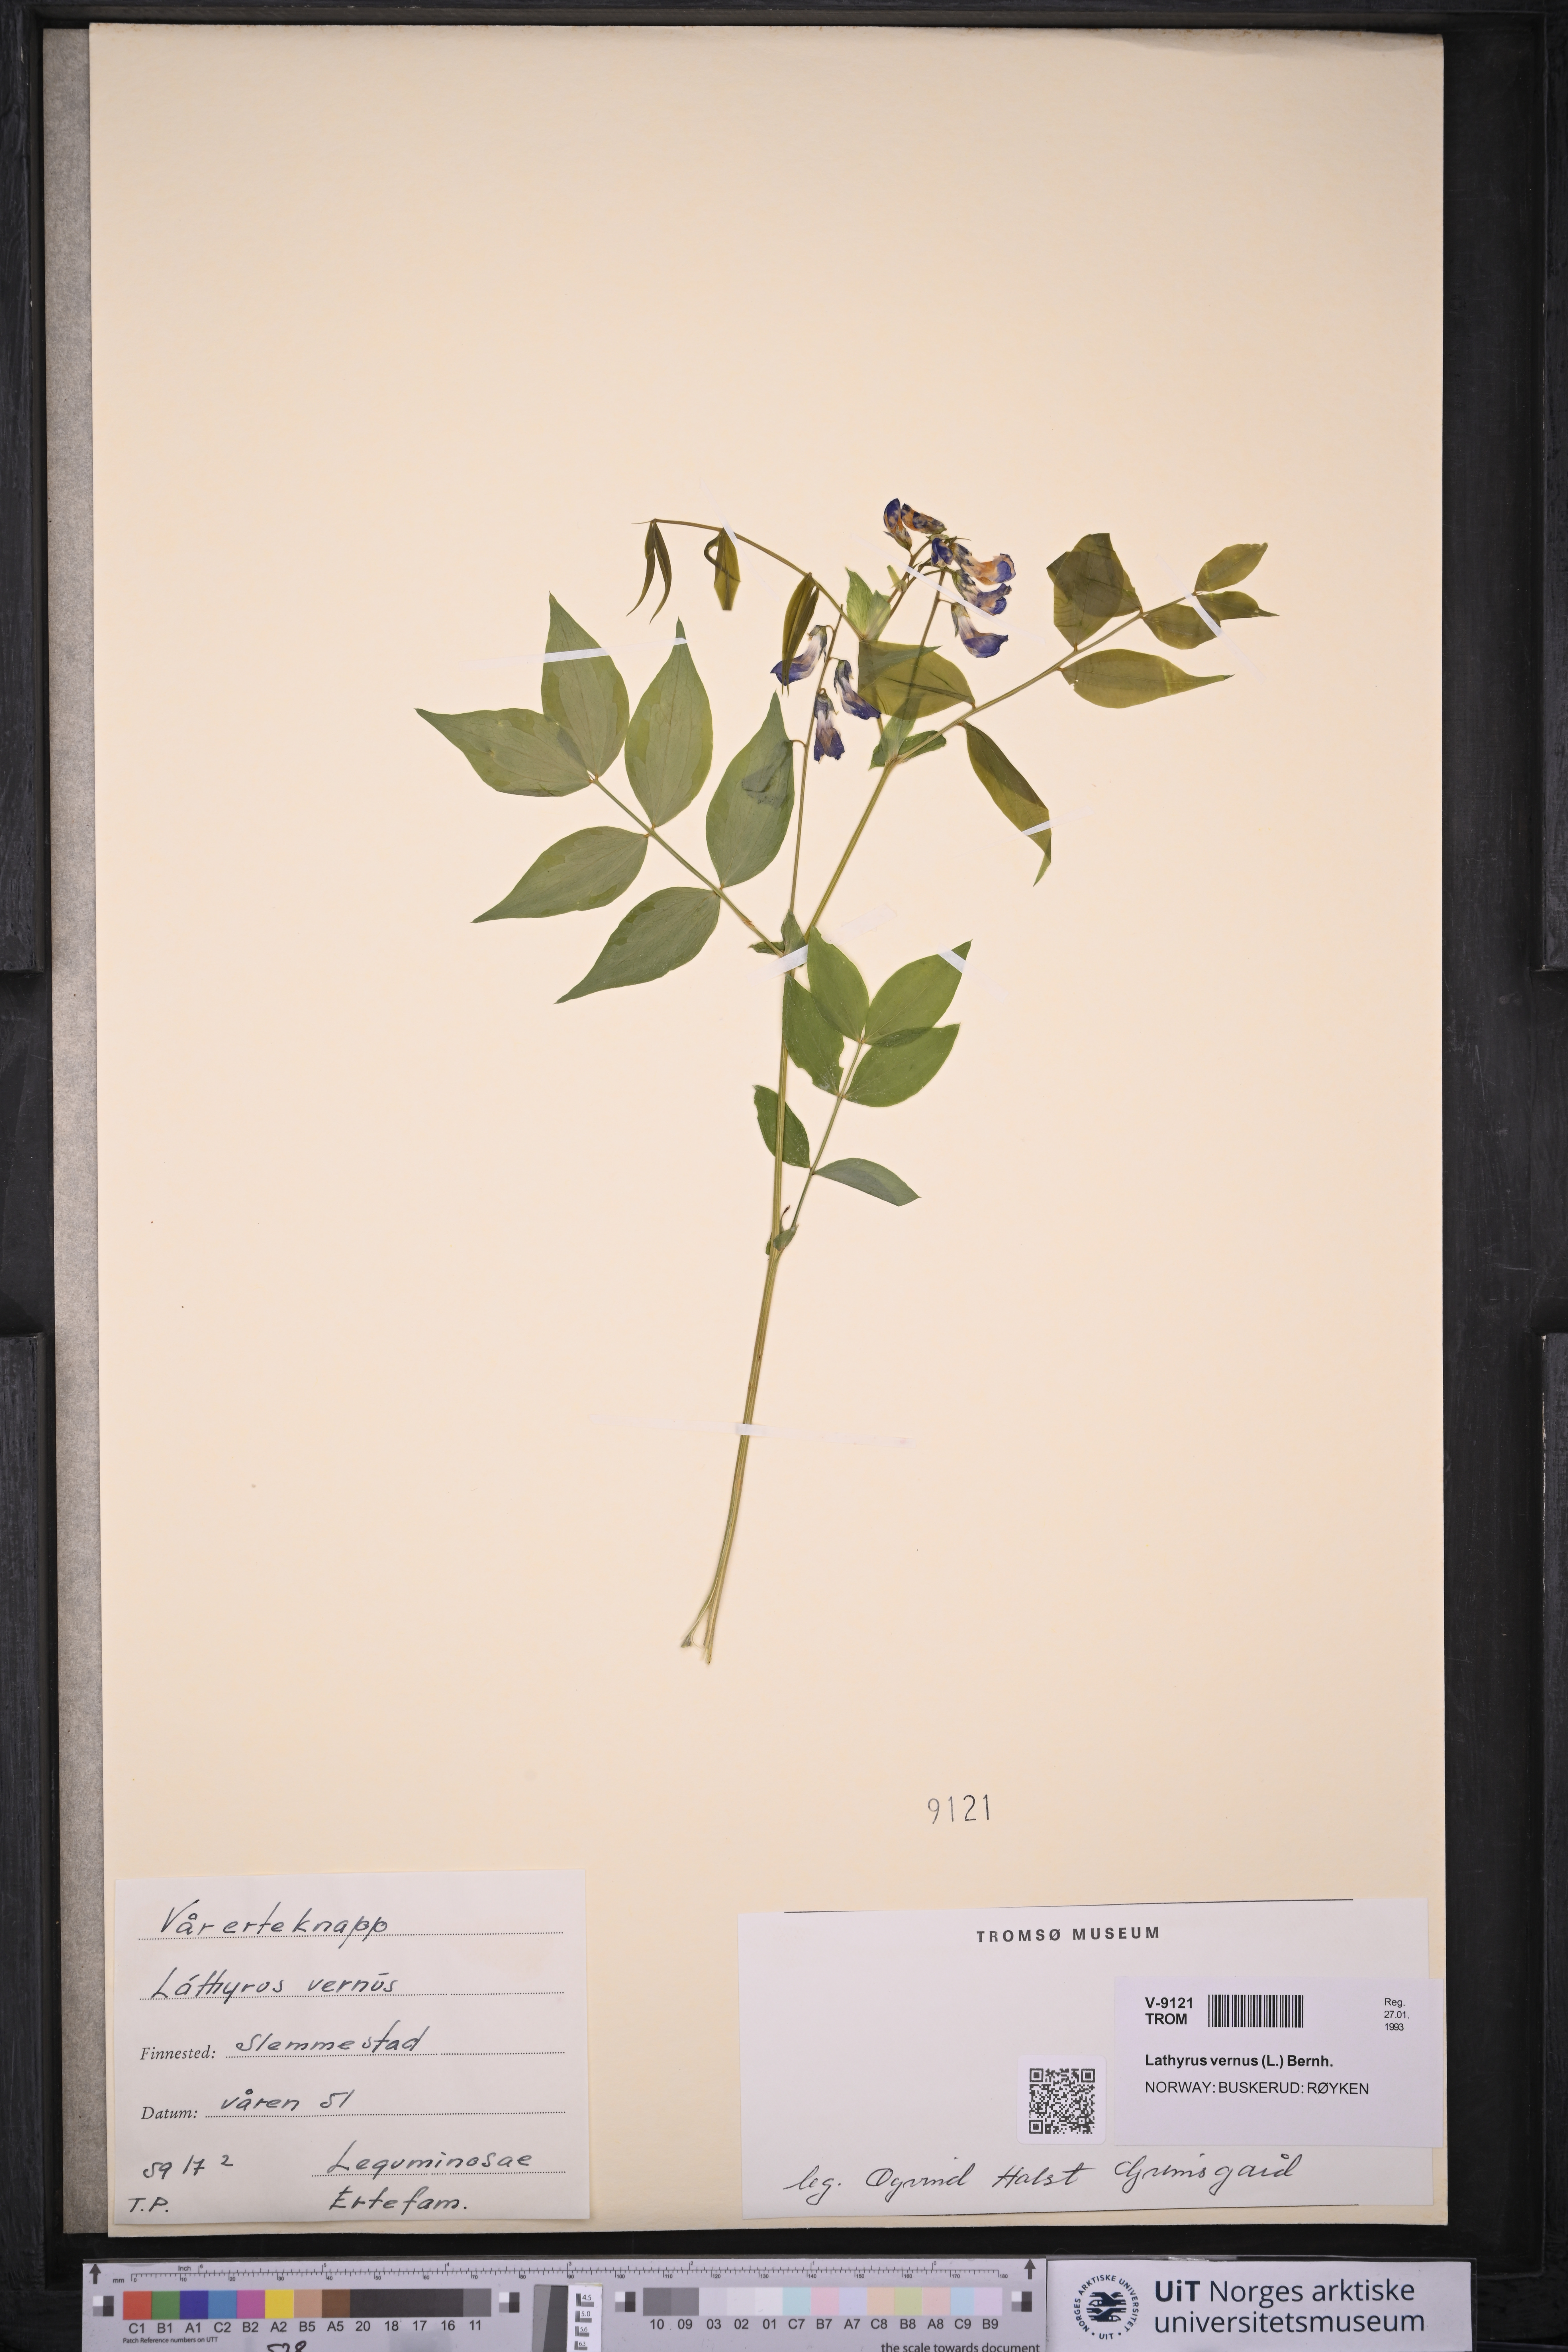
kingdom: Plantae
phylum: Tracheophyta
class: Magnoliopsida
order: Fabales
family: Fabaceae
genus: Lathyrus
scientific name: Lathyrus vernus
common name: Spring pea
